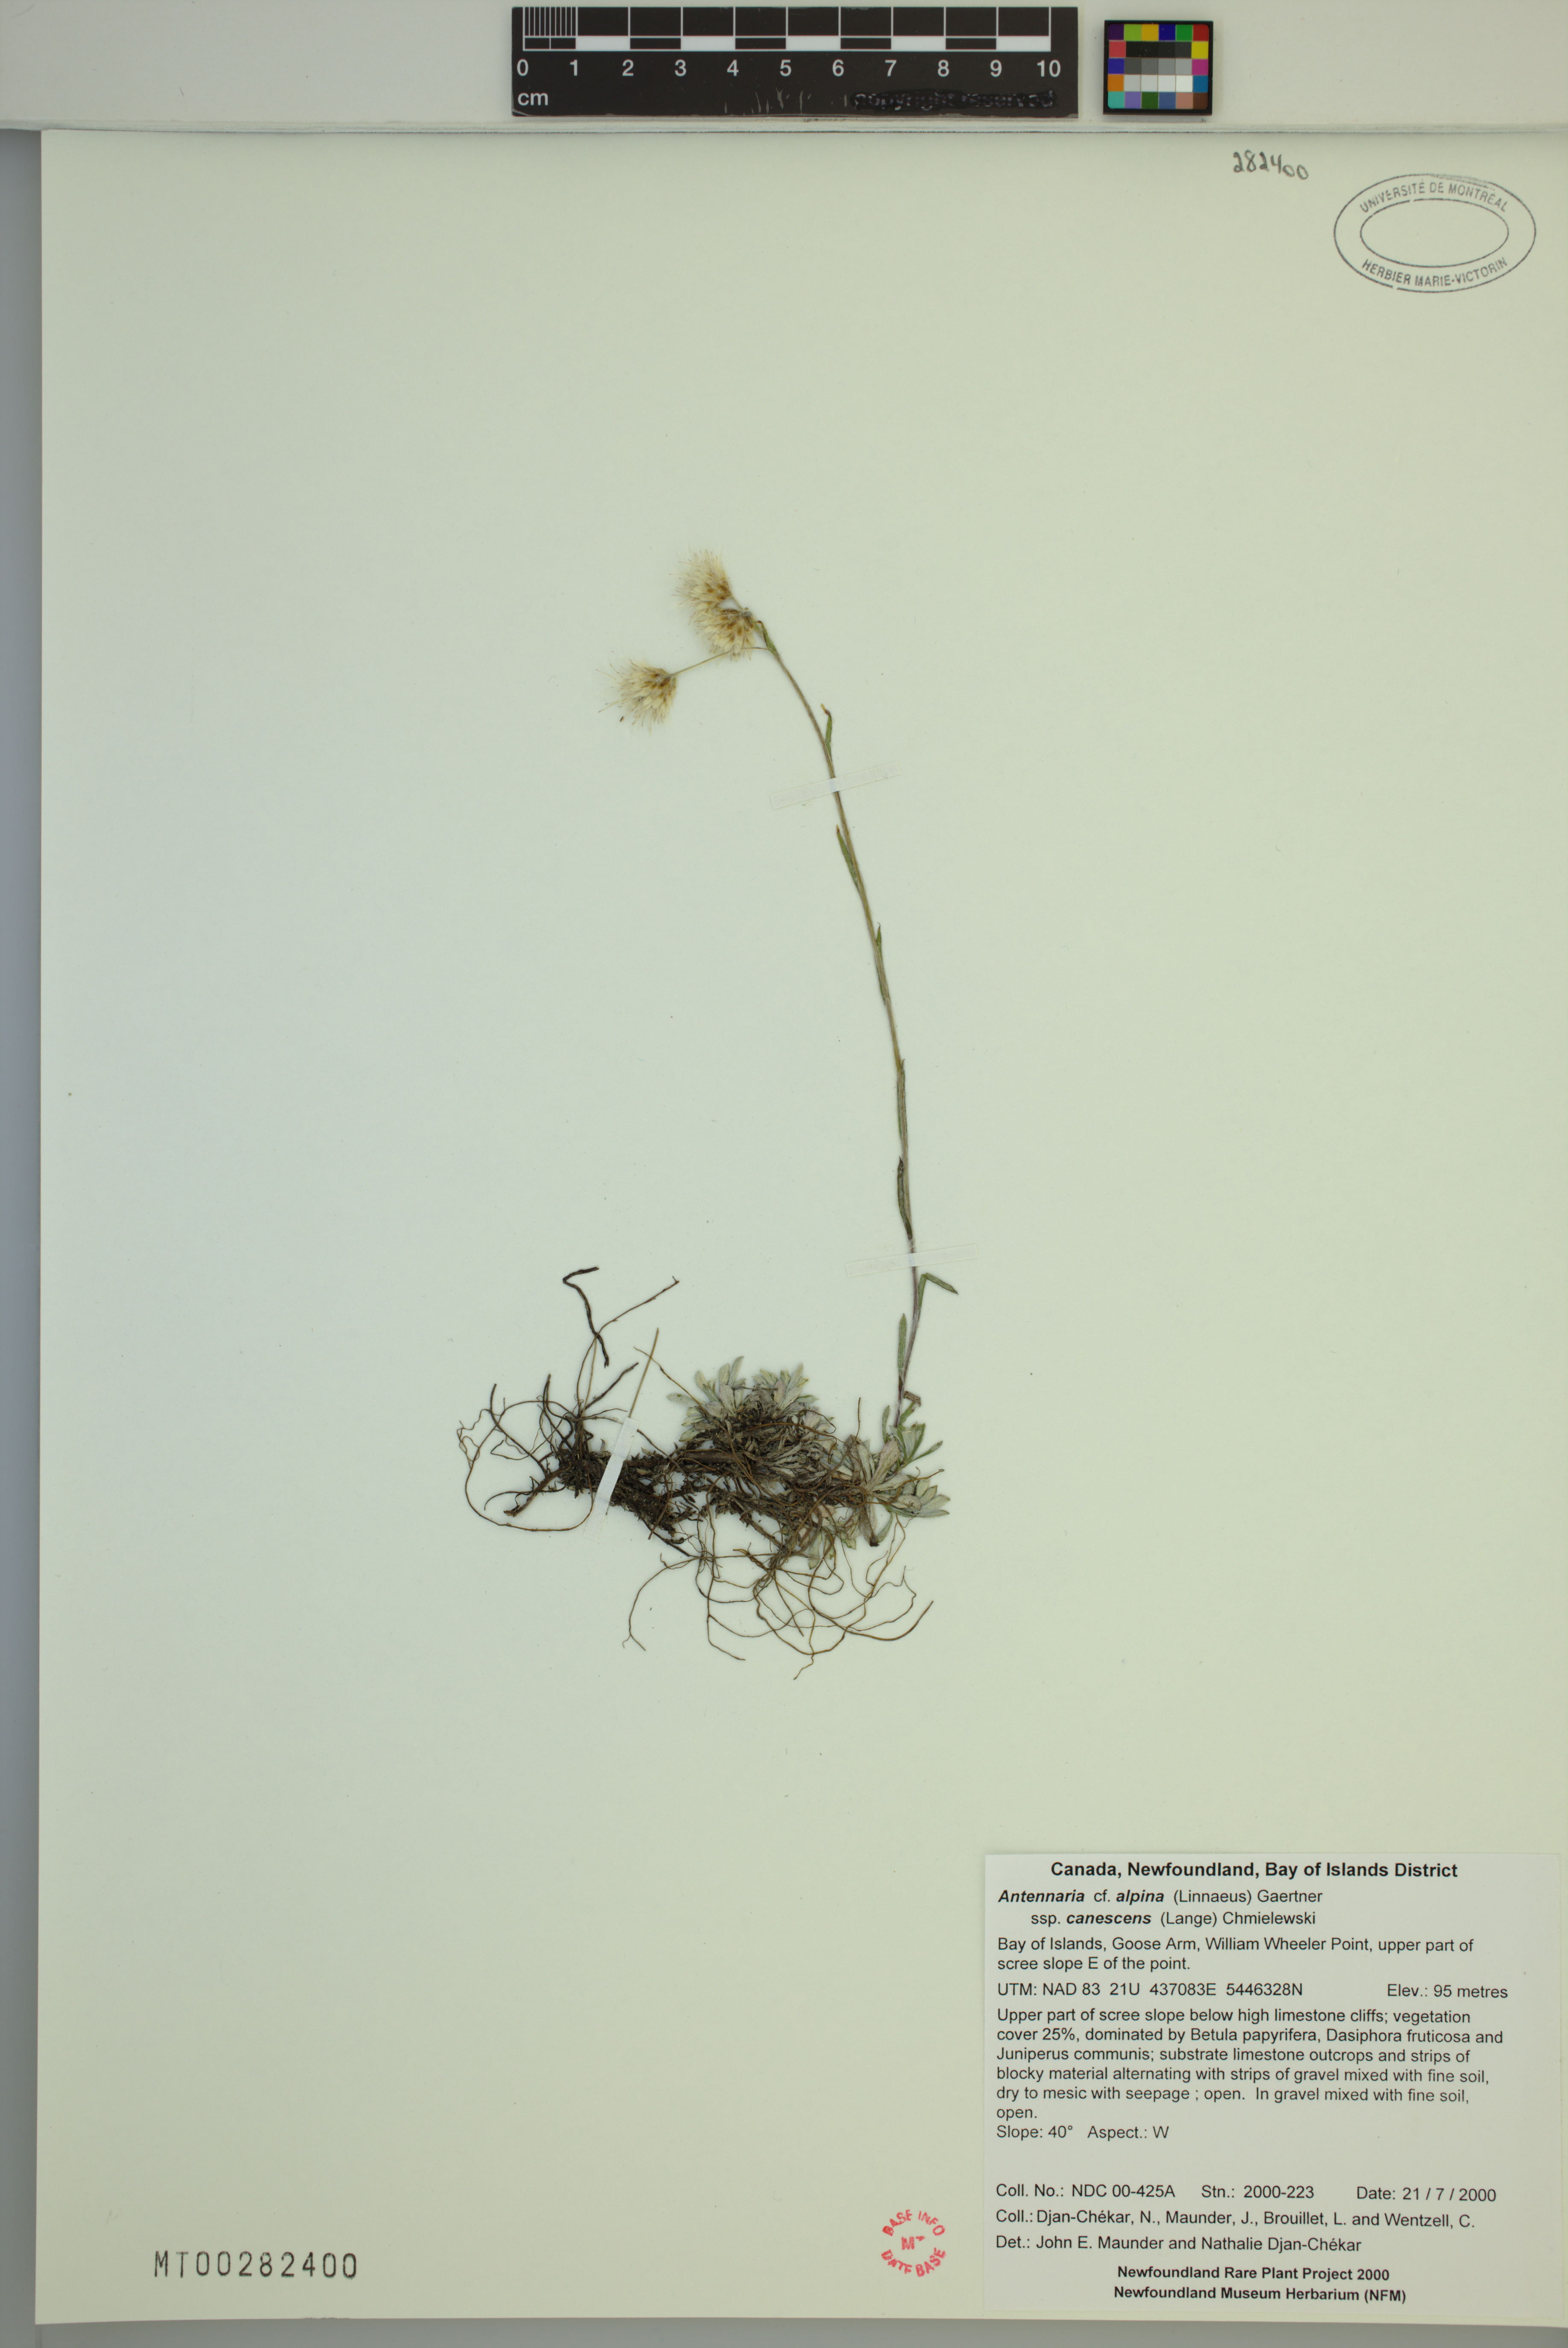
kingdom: Plantae
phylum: Tracheophyta
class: Magnoliopsida
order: Asterales
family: Asteraceae
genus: Antennaria
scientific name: Antennaria alpina
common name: Alpine pussytoes
